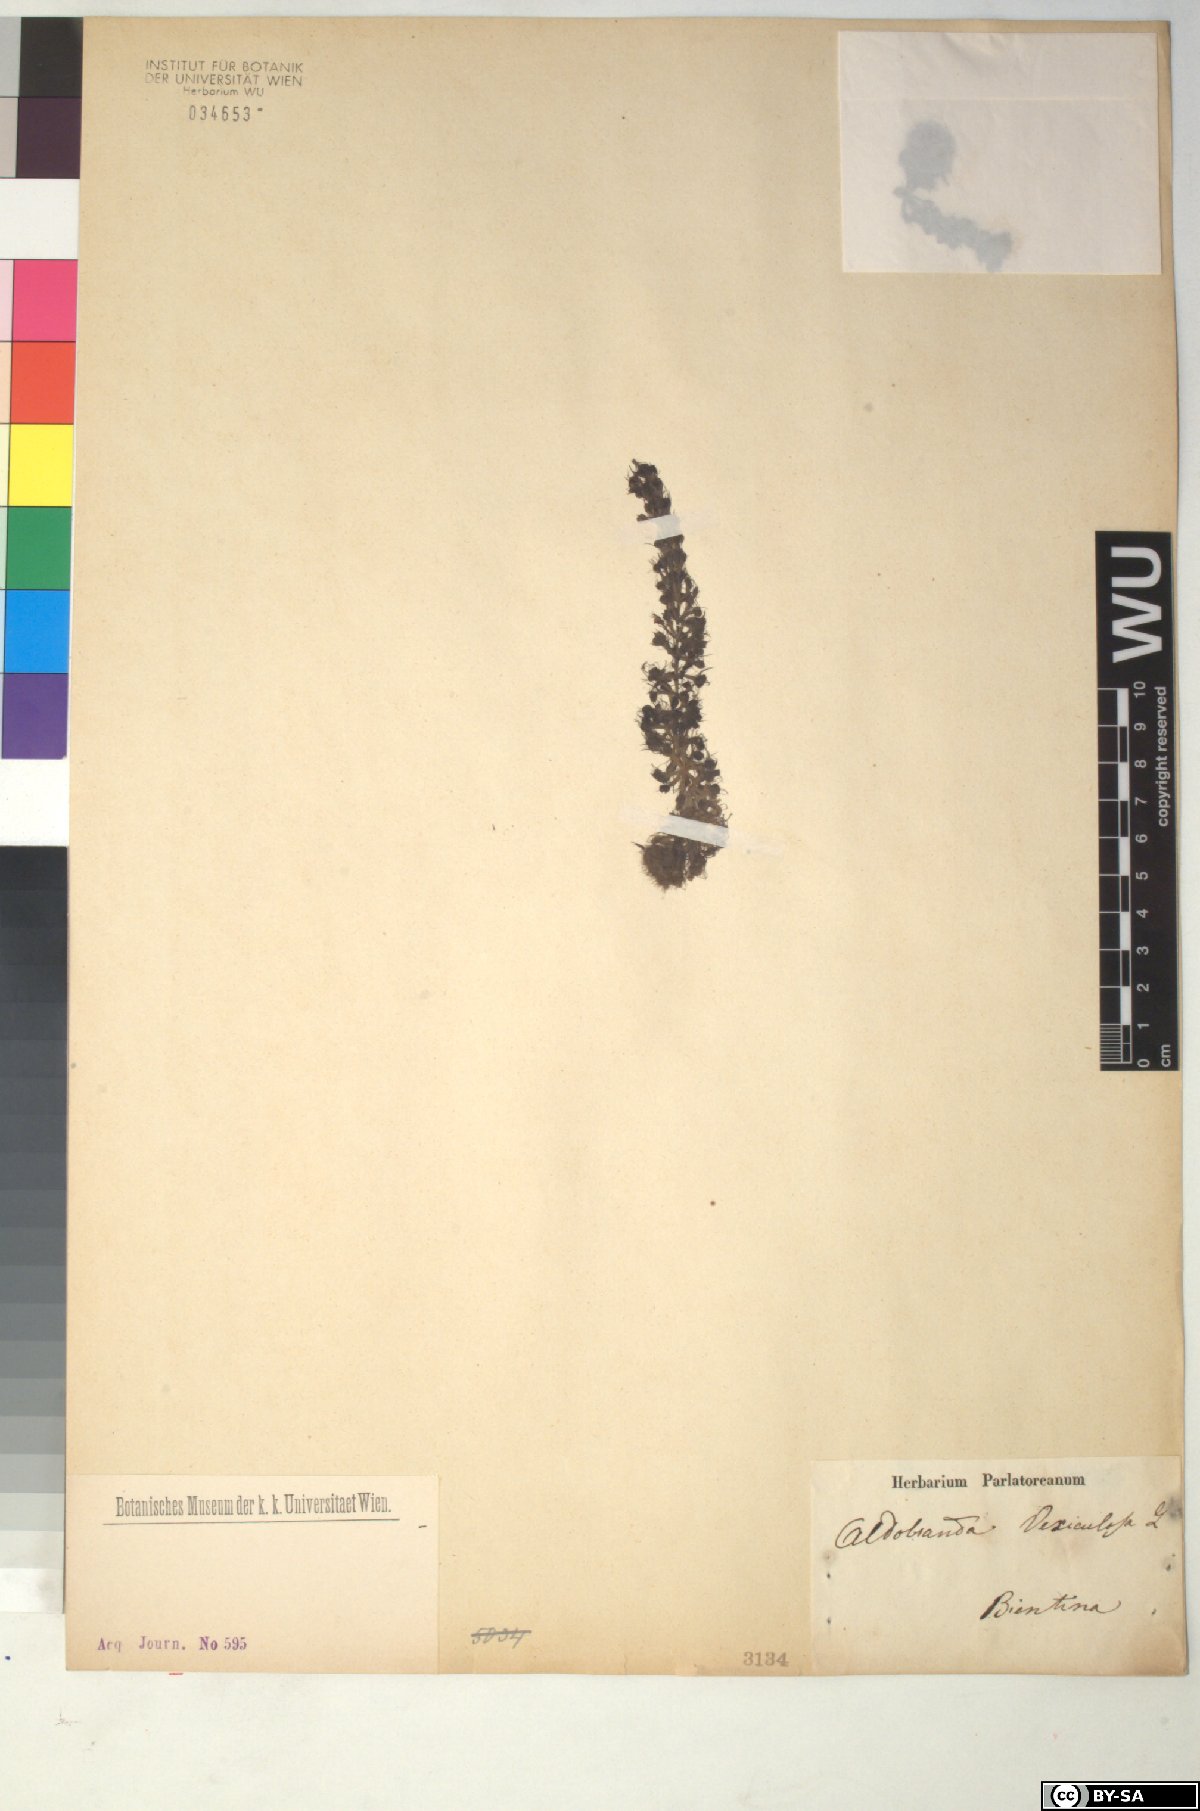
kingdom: Plantae
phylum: Tracheophyta
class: Magnoliopsida
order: Caryophyllales
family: Droseraceae
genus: Aldrovanda
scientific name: Aldrovanda vesiculosa
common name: Waterwheel plant
